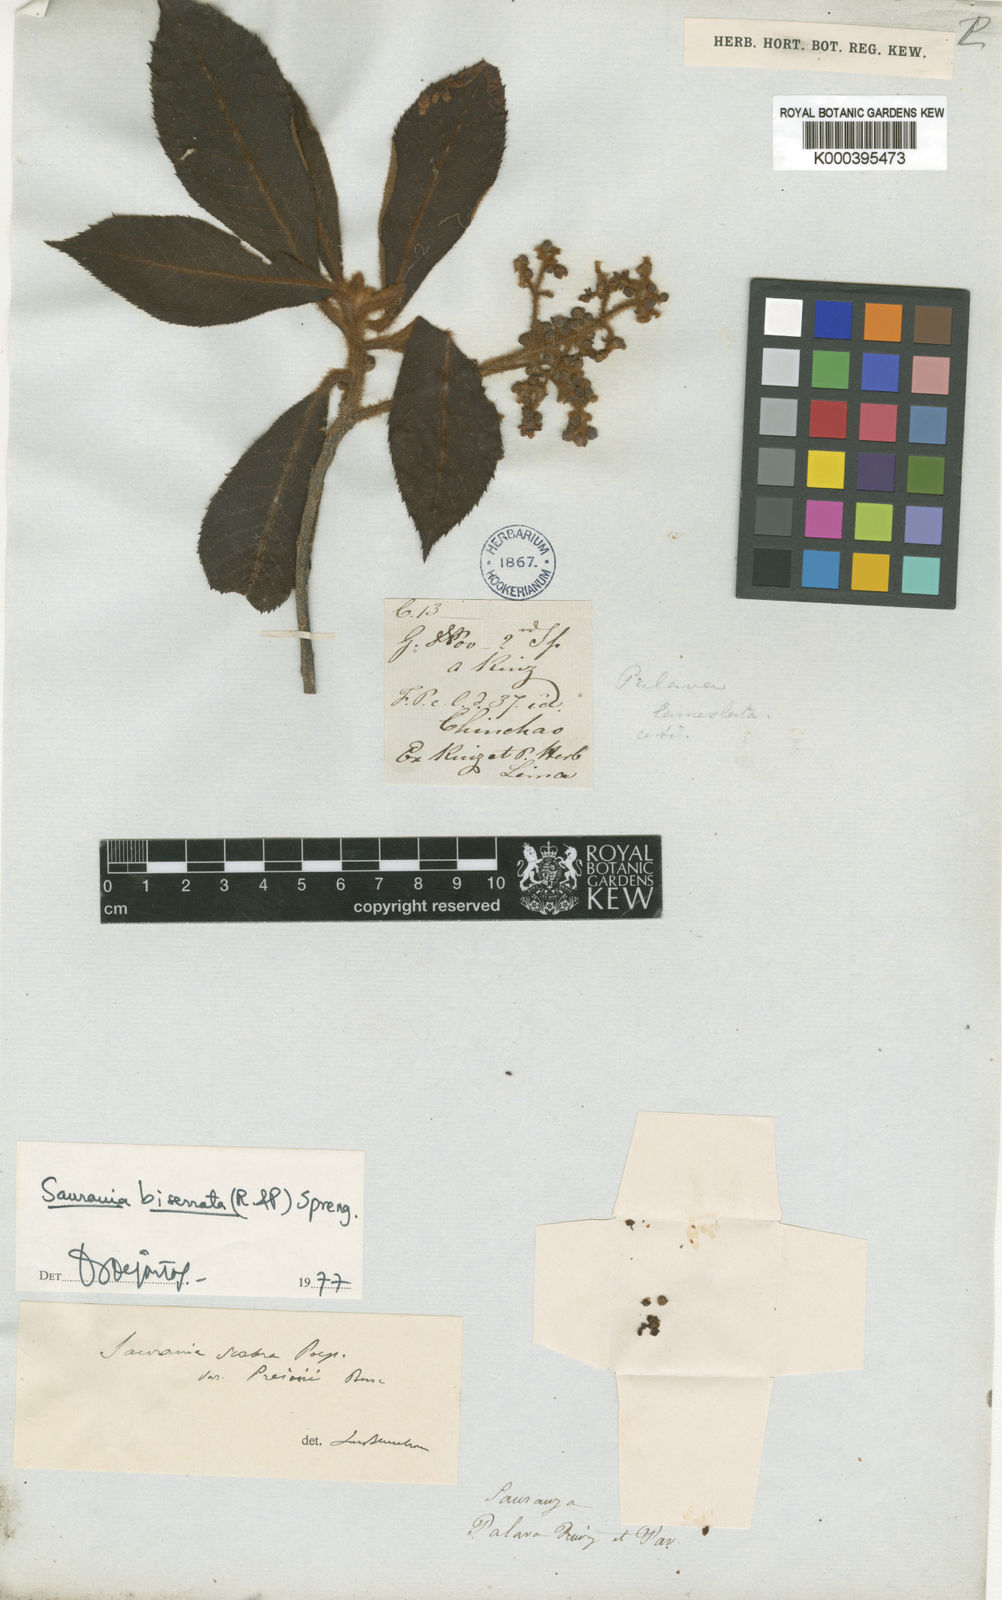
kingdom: Plantae
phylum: Tracheophyta
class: Magnoliopsida
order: Ericales
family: Actinidiaceae
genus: Saurauia
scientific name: Saurauia biserrata
